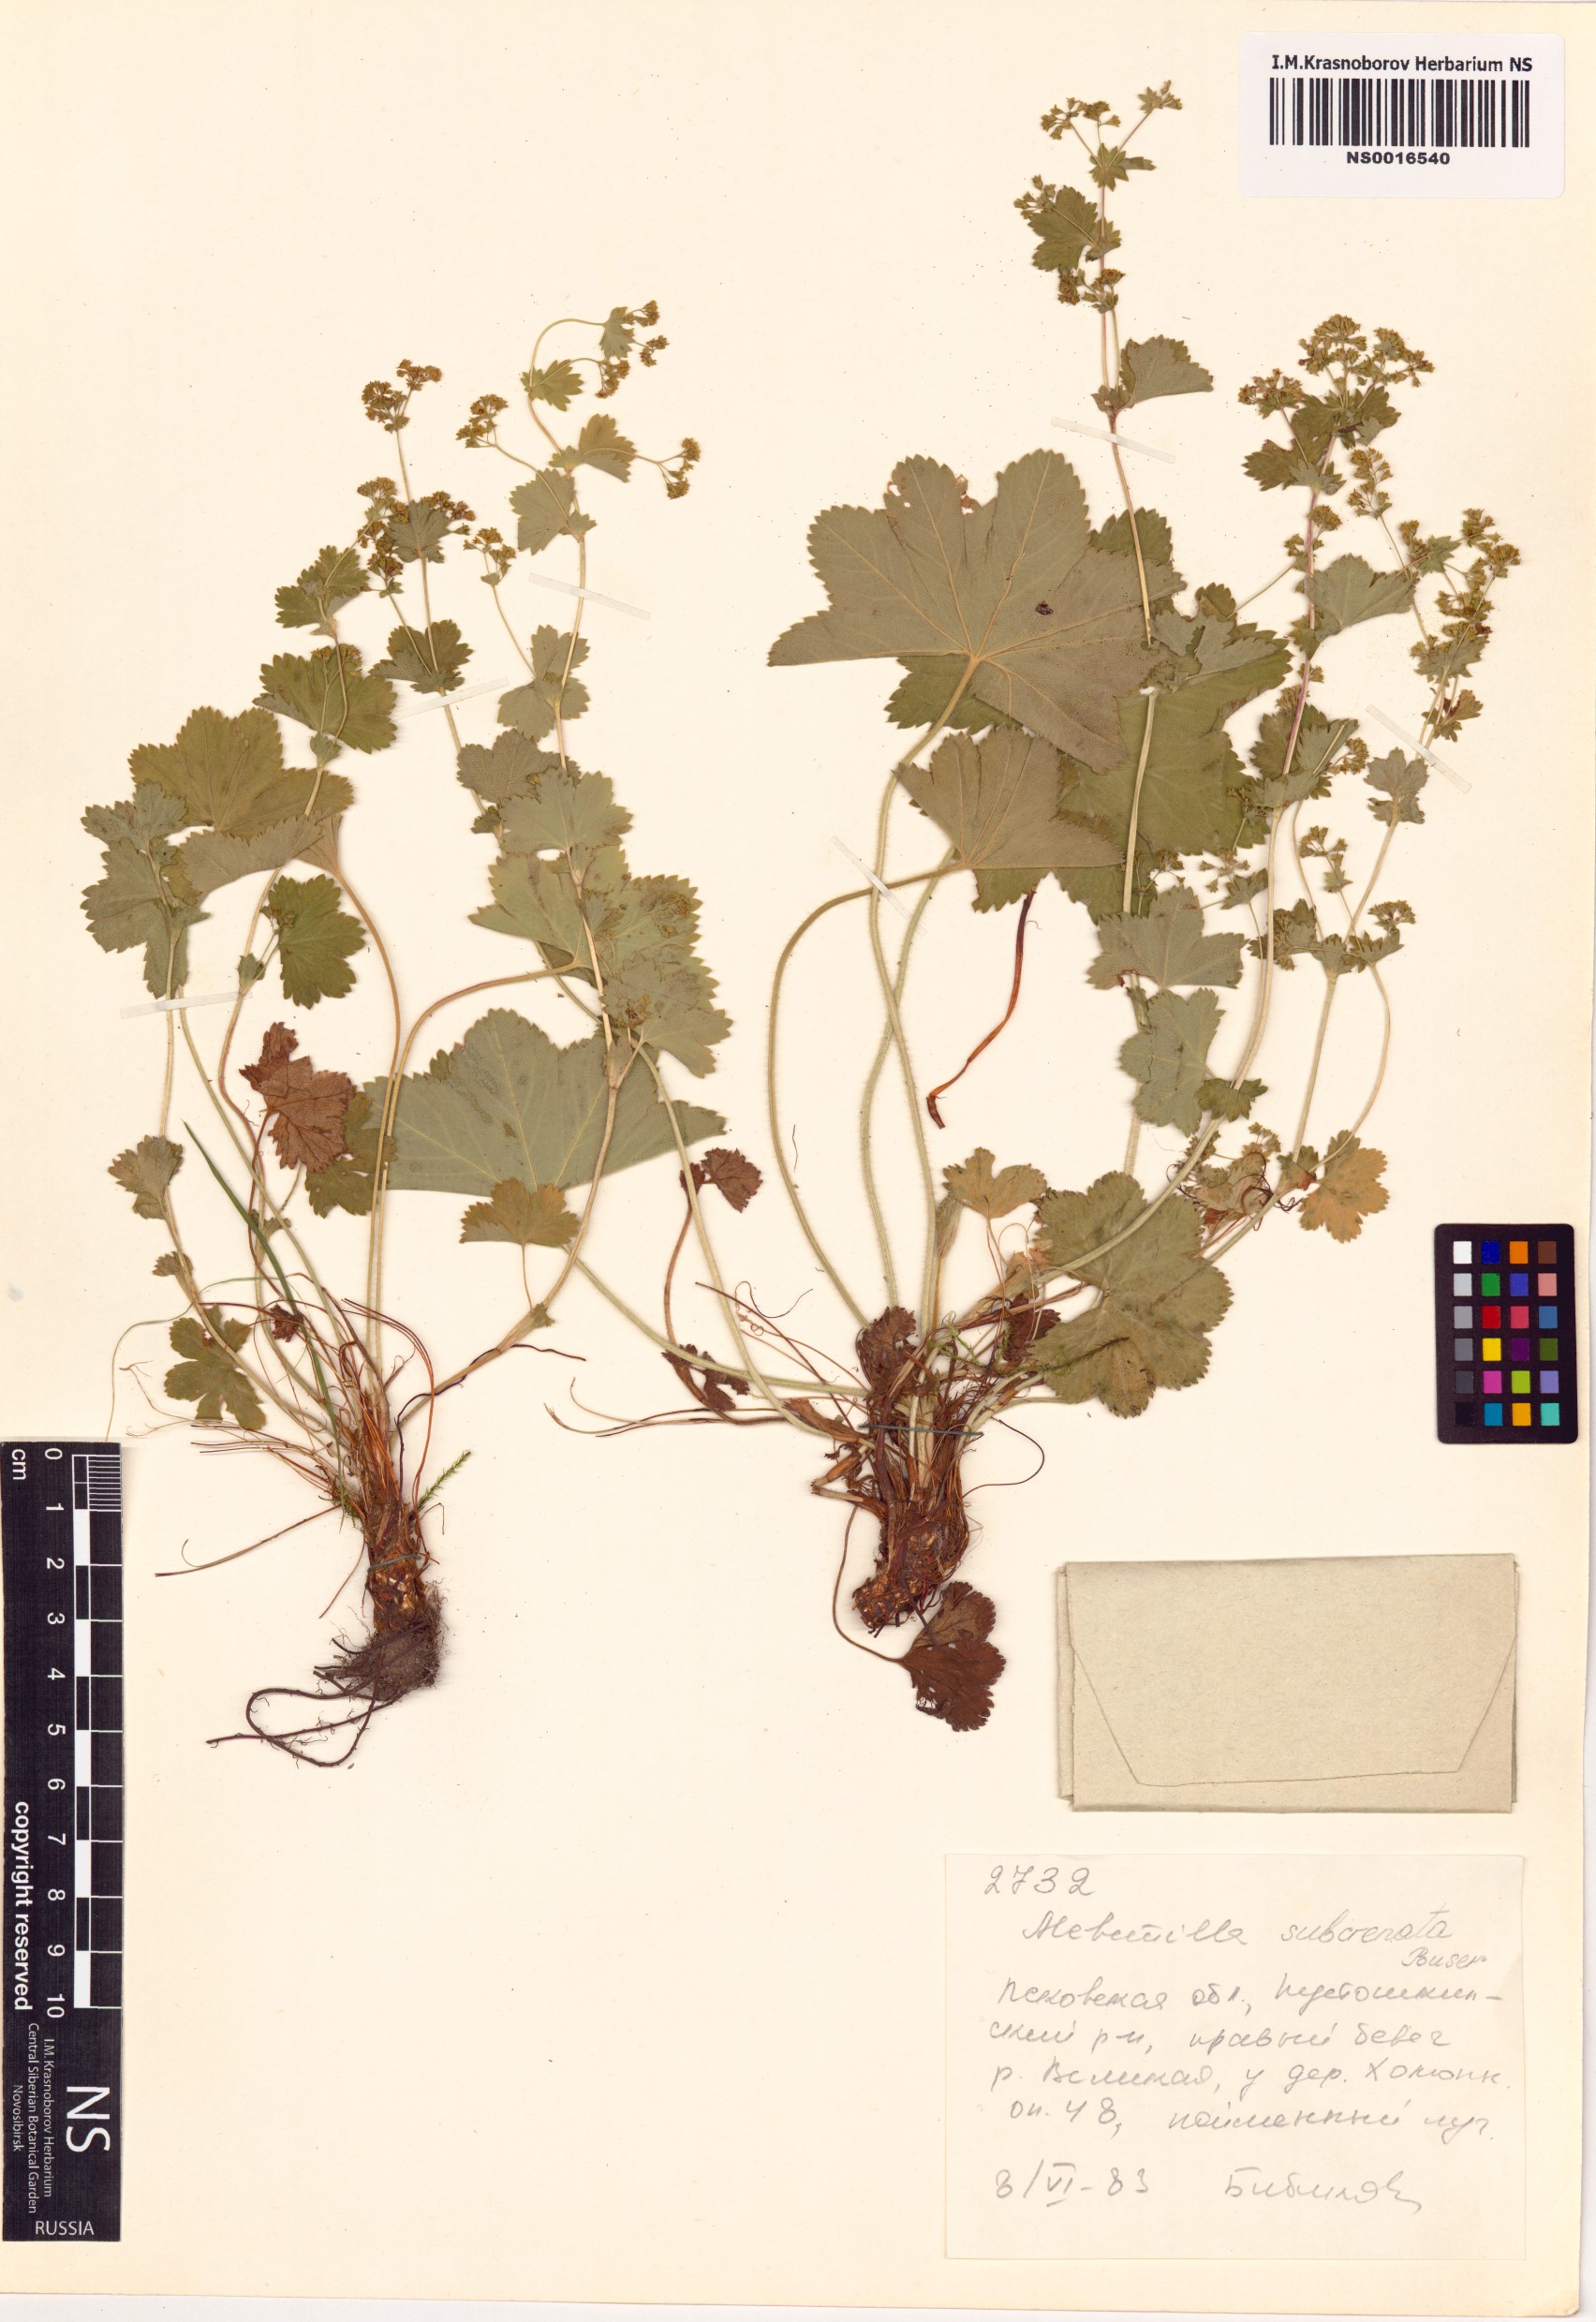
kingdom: Plantae
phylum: Tracheophyta
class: Magnoliopsida
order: Rosales
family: Rosaceae
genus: Alchemilla
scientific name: Alchemilla subcrenata
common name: Broadtooth lady's mantle
